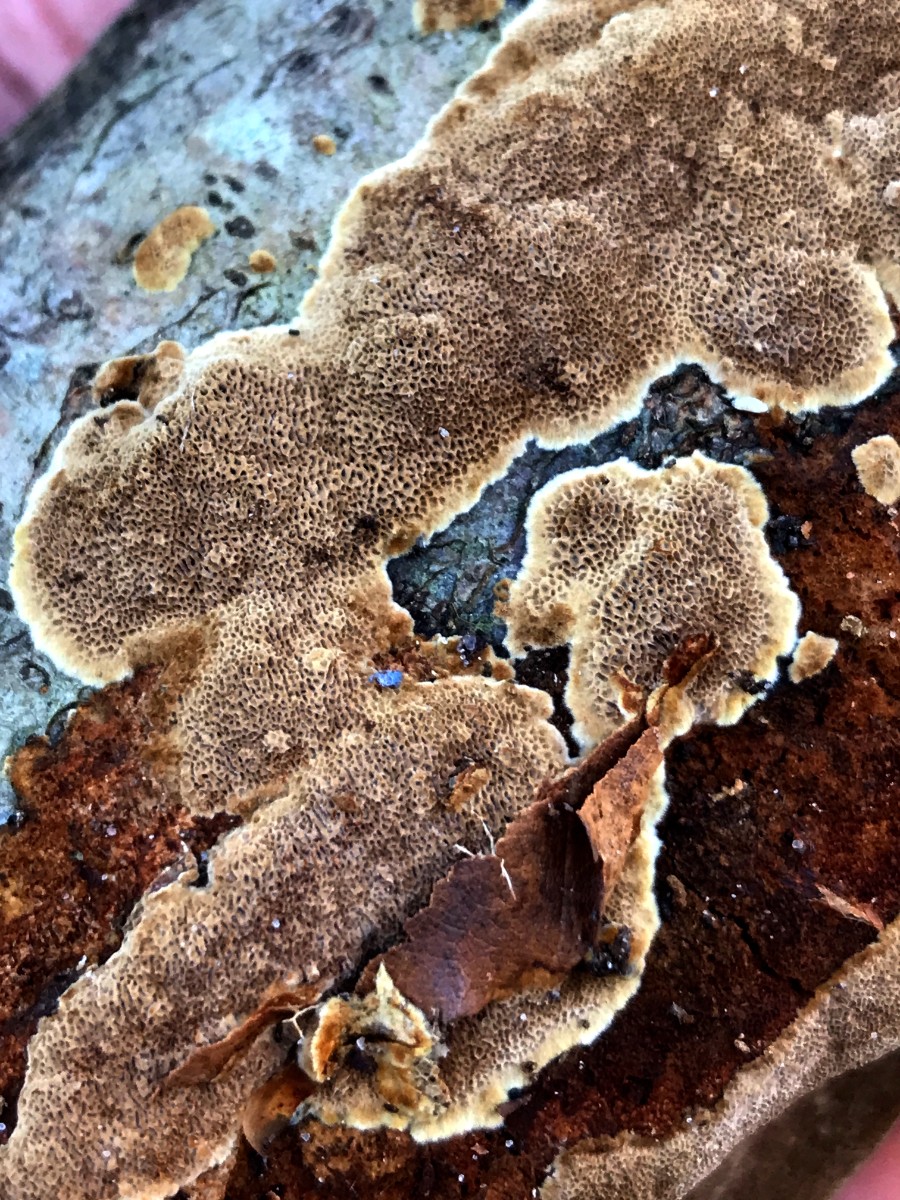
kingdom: Fungi
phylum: Basidiomycota
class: Agaricomycetes
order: Hymenochaetales
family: Hymenochaetaceae
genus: Fuscoporia
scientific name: Fuscoporia ferruginosa
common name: rustbrun ildporesvamp
